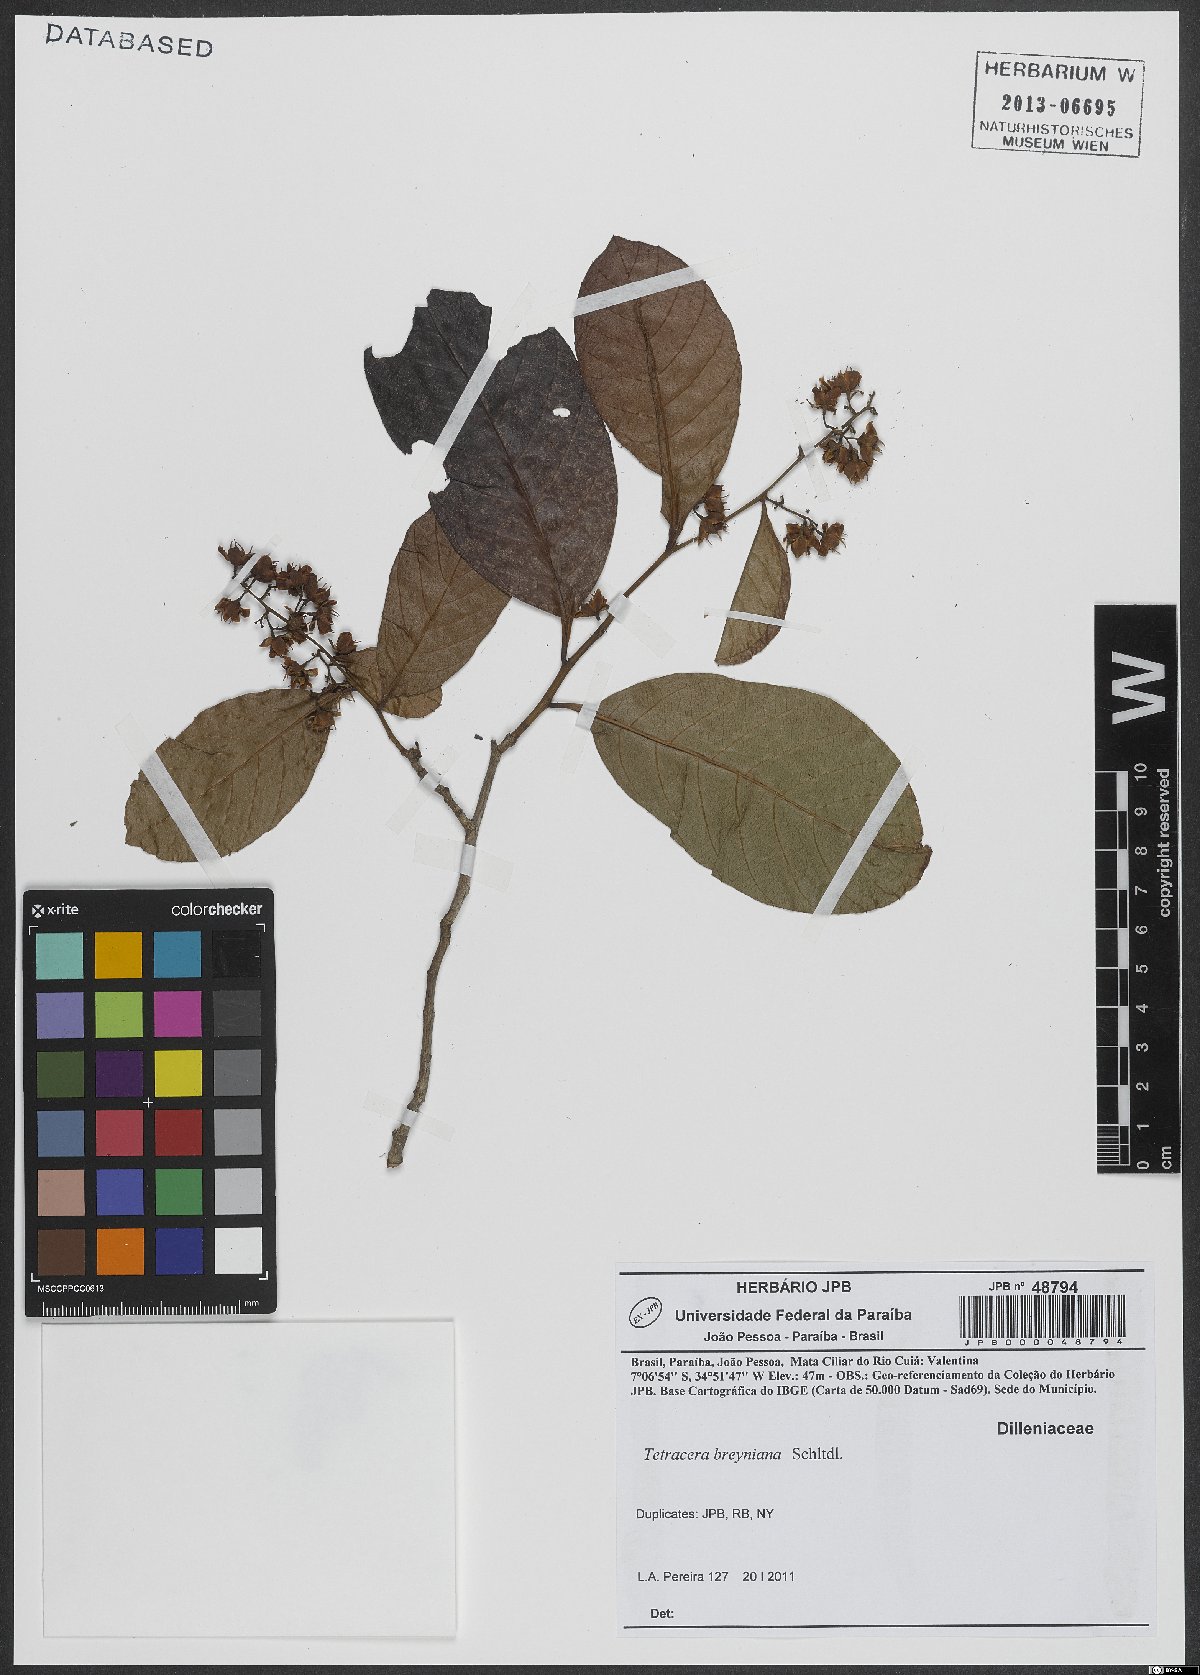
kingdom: Plantae
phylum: Tracheophyta
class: Magnoliopsida
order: Dilleniales
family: Dilleniaceae
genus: Tetracera
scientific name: Tetracera breyniana
